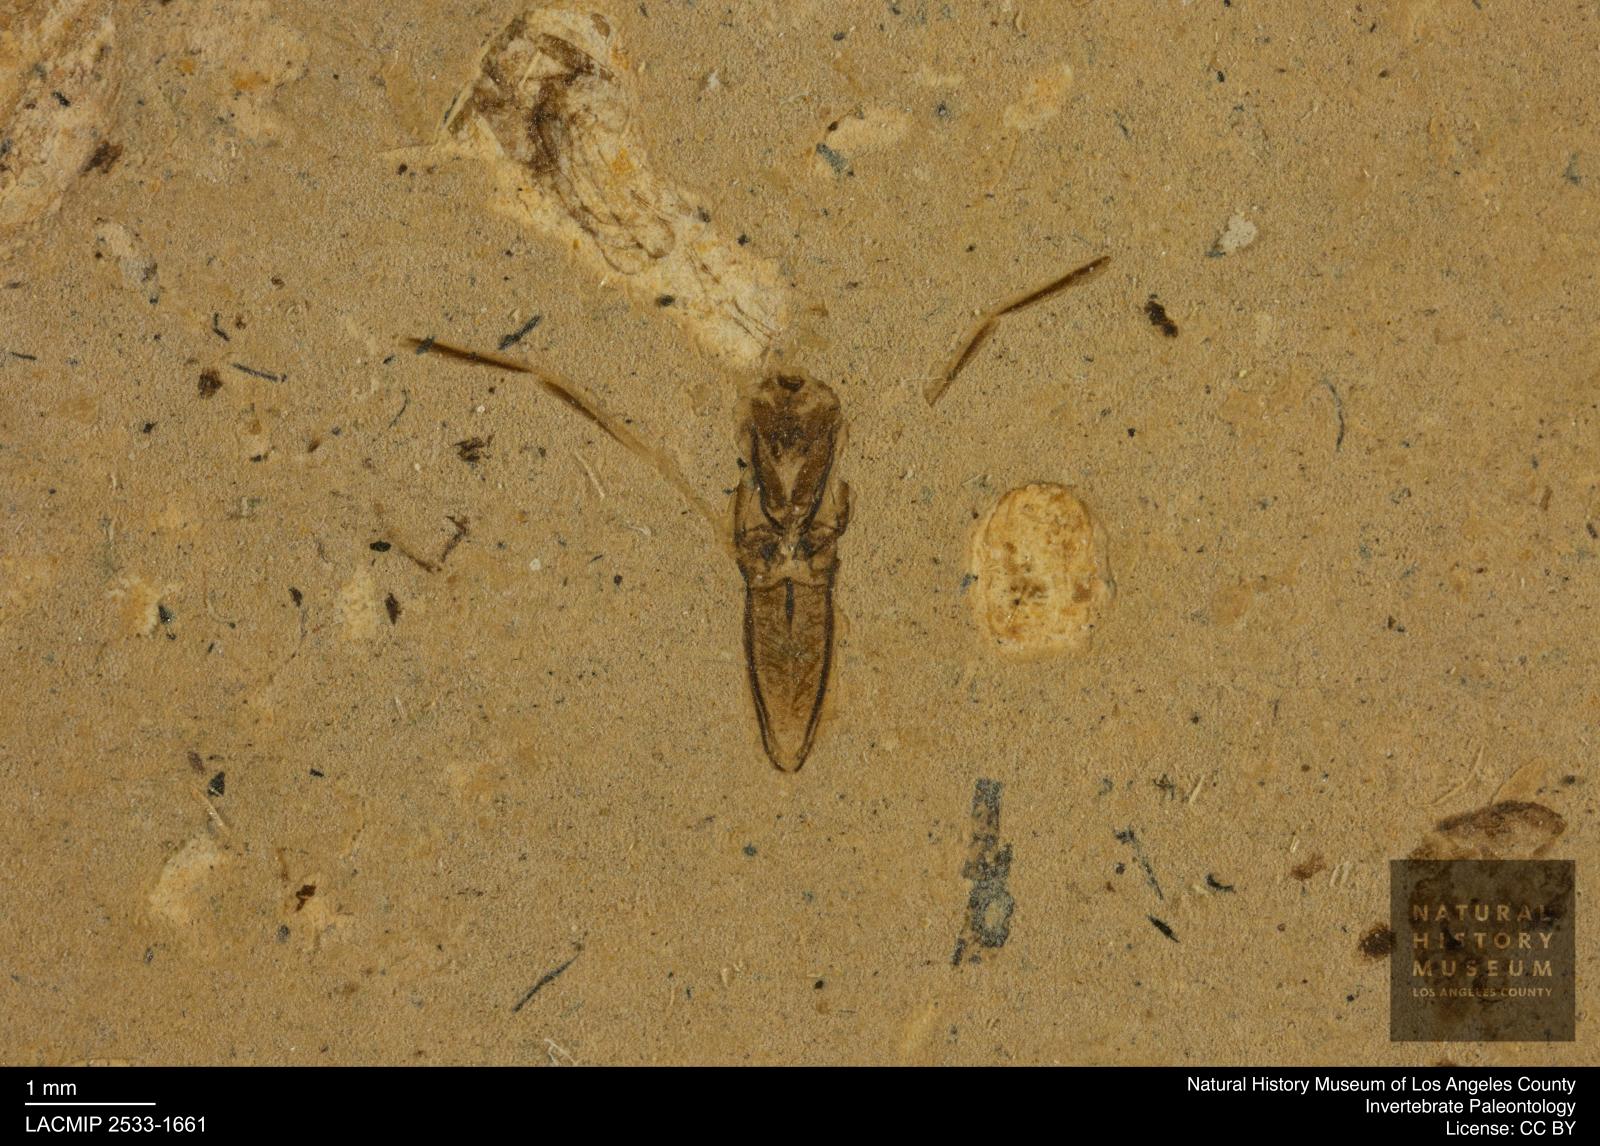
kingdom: Animalia
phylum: Arthropoda
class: Insecta
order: Hemiptera
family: Notonectidae
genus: Notonecta
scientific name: Notonecta
